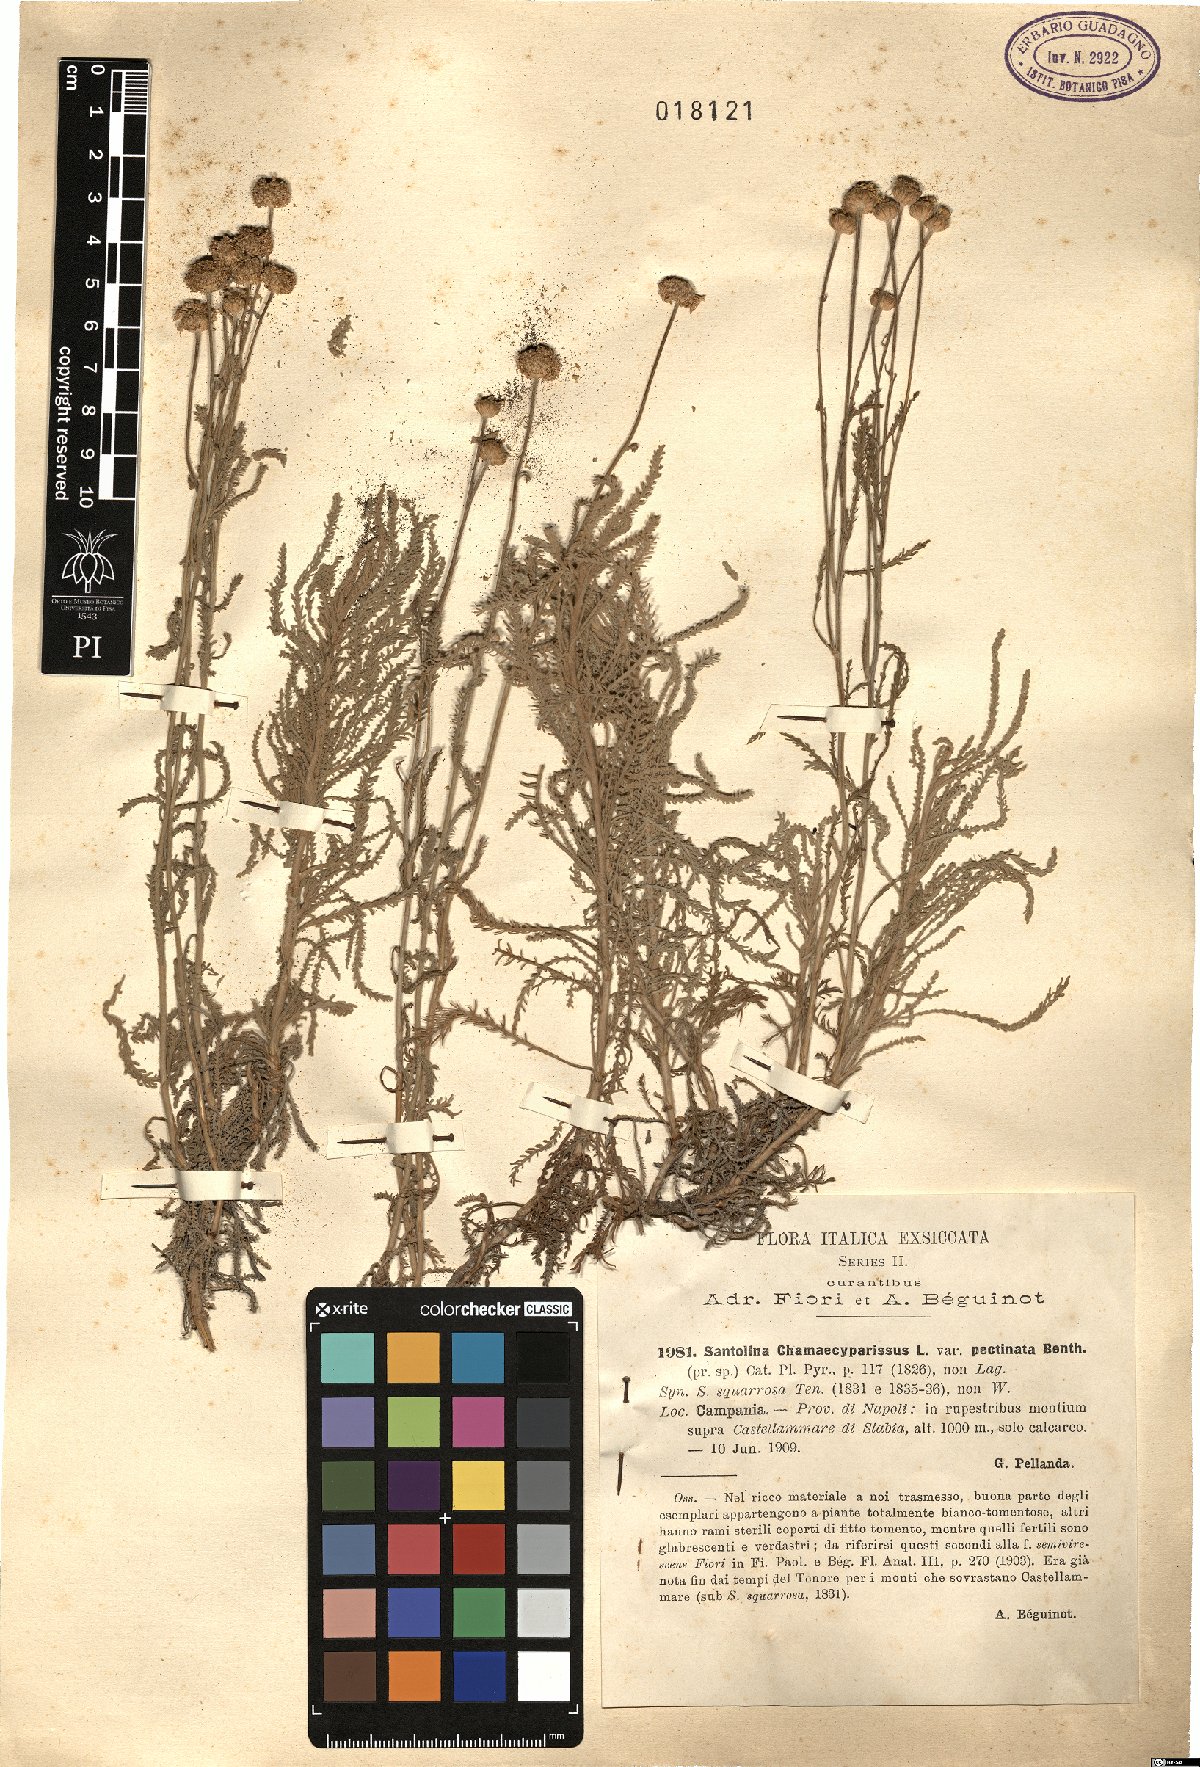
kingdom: Plantae
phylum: Tracheophyta
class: Magnoliopsida
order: Asterales
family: Asteraceae
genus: Santolina
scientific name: Santolina benthamiana
